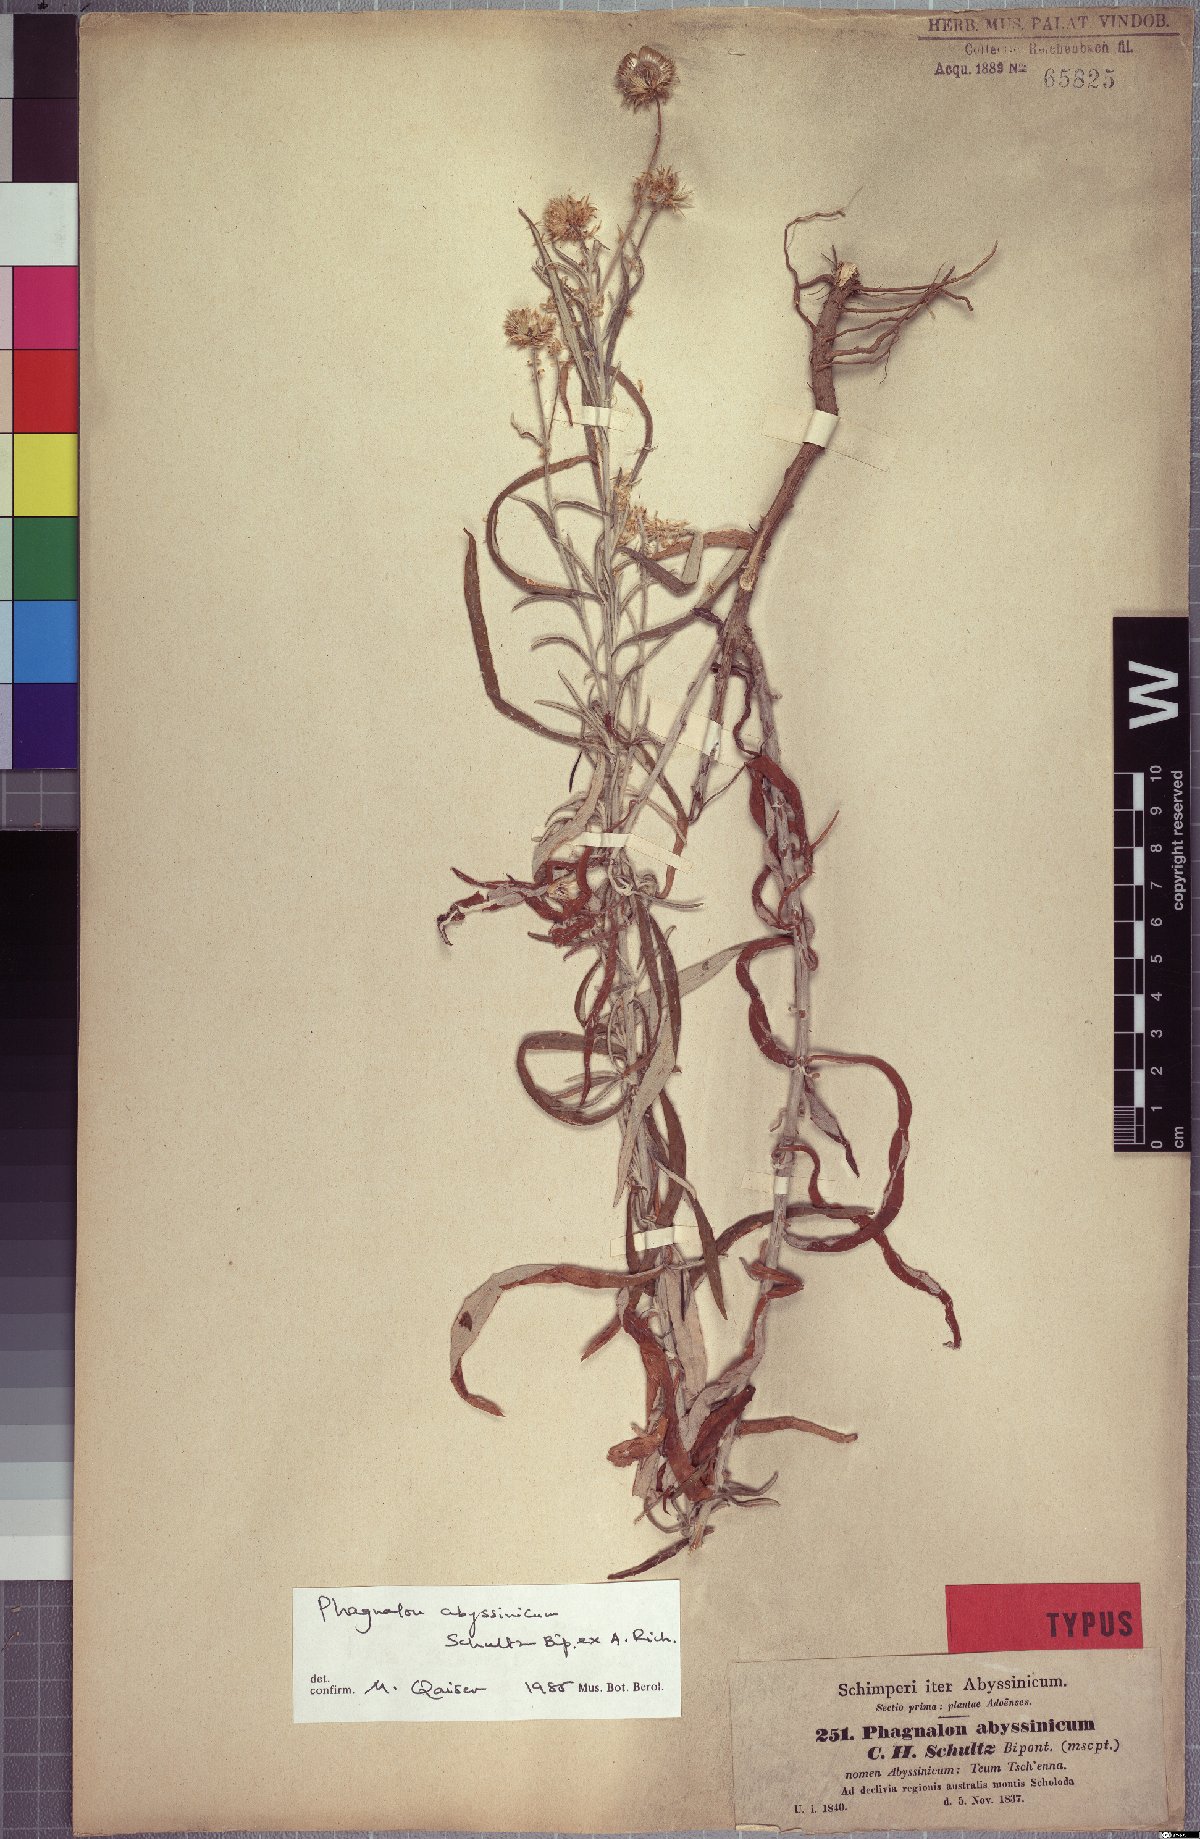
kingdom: Plantae
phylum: Tracheophyta
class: Magnoliopsida
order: Asterales
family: Asteraceae
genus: Phagnalon
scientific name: Phagnalon abyssinicum
